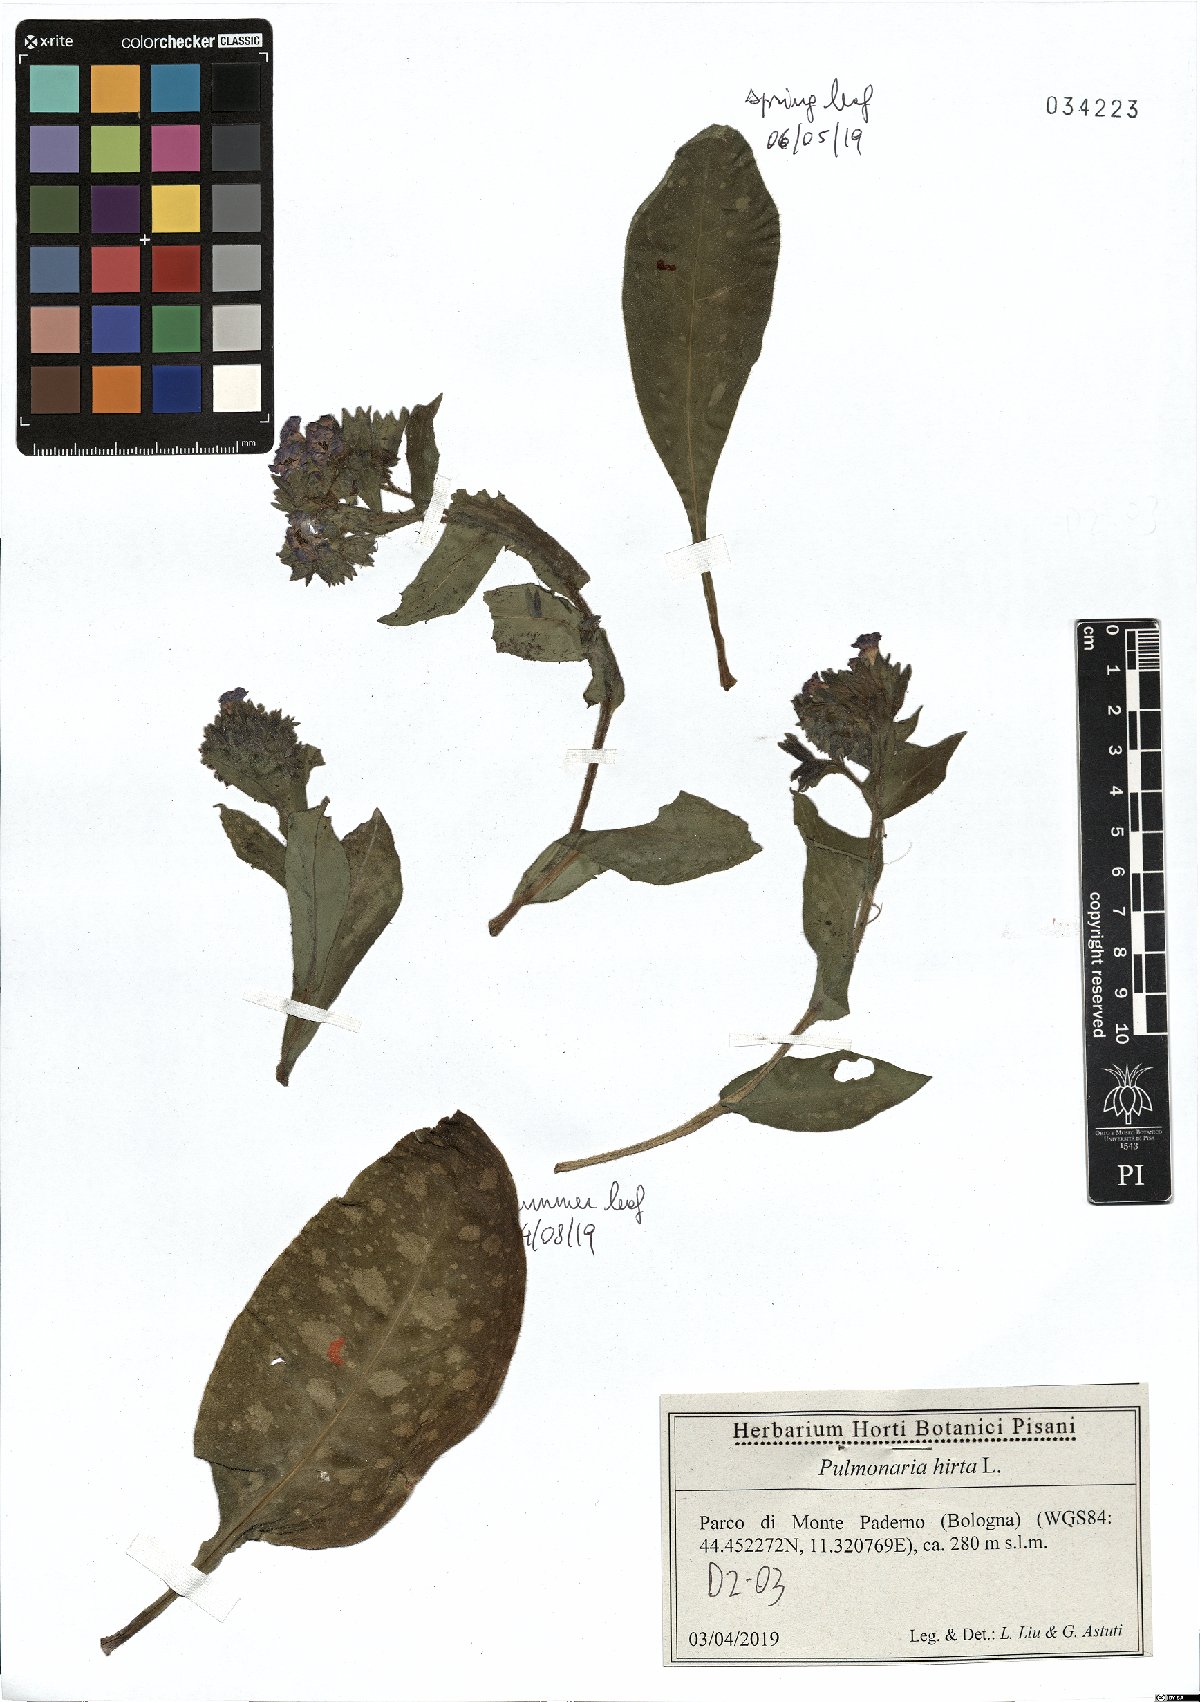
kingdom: Plantae
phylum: Tracheophyta
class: Magnoliopsida
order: Boraginales
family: Boraginaceae
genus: Pulmonaria
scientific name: Pulmonaria hirta
